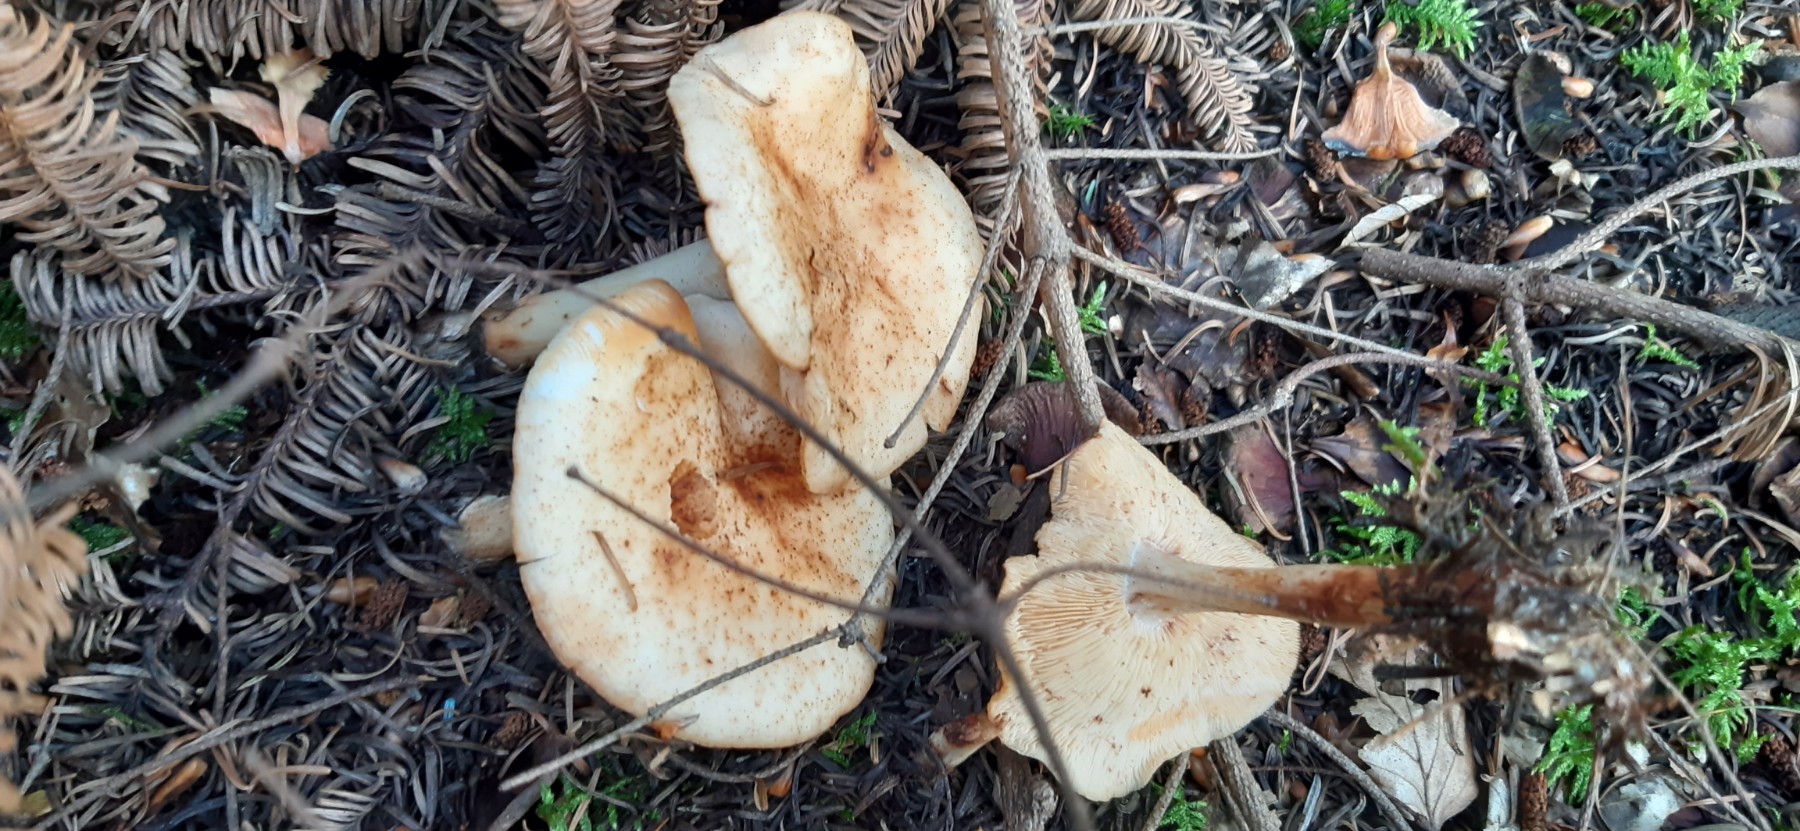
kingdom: Fungi
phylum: Basidiomycota
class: Agaricomycetes
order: Agaricales
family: Omphalotaceae
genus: Rhodocollybia
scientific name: Rhodocollybia maculata
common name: plettet fladhat
